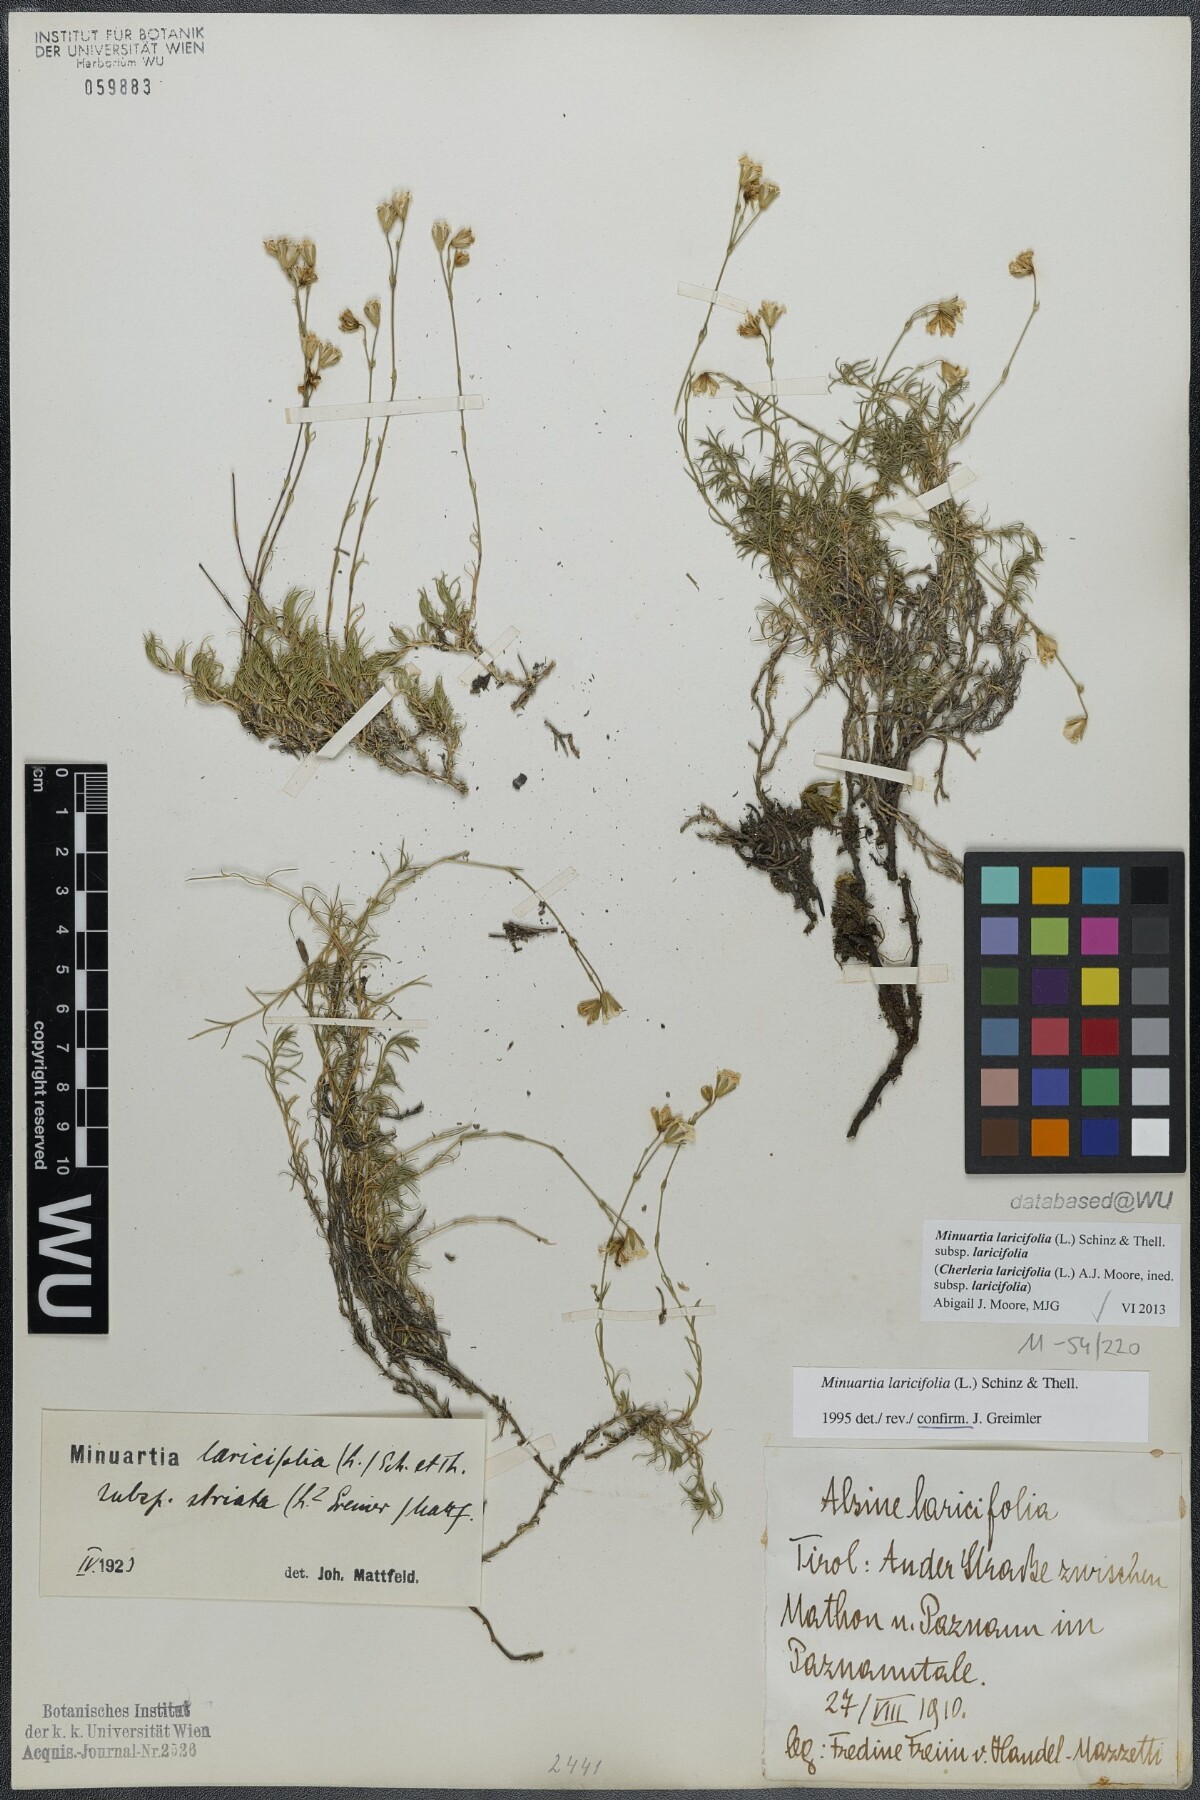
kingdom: Plantae
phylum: Tracheophyta
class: Magnoliopsida
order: Caryophyllales
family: Caryophyllaceae
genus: Cherleria
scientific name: Cherleria laricifolia
